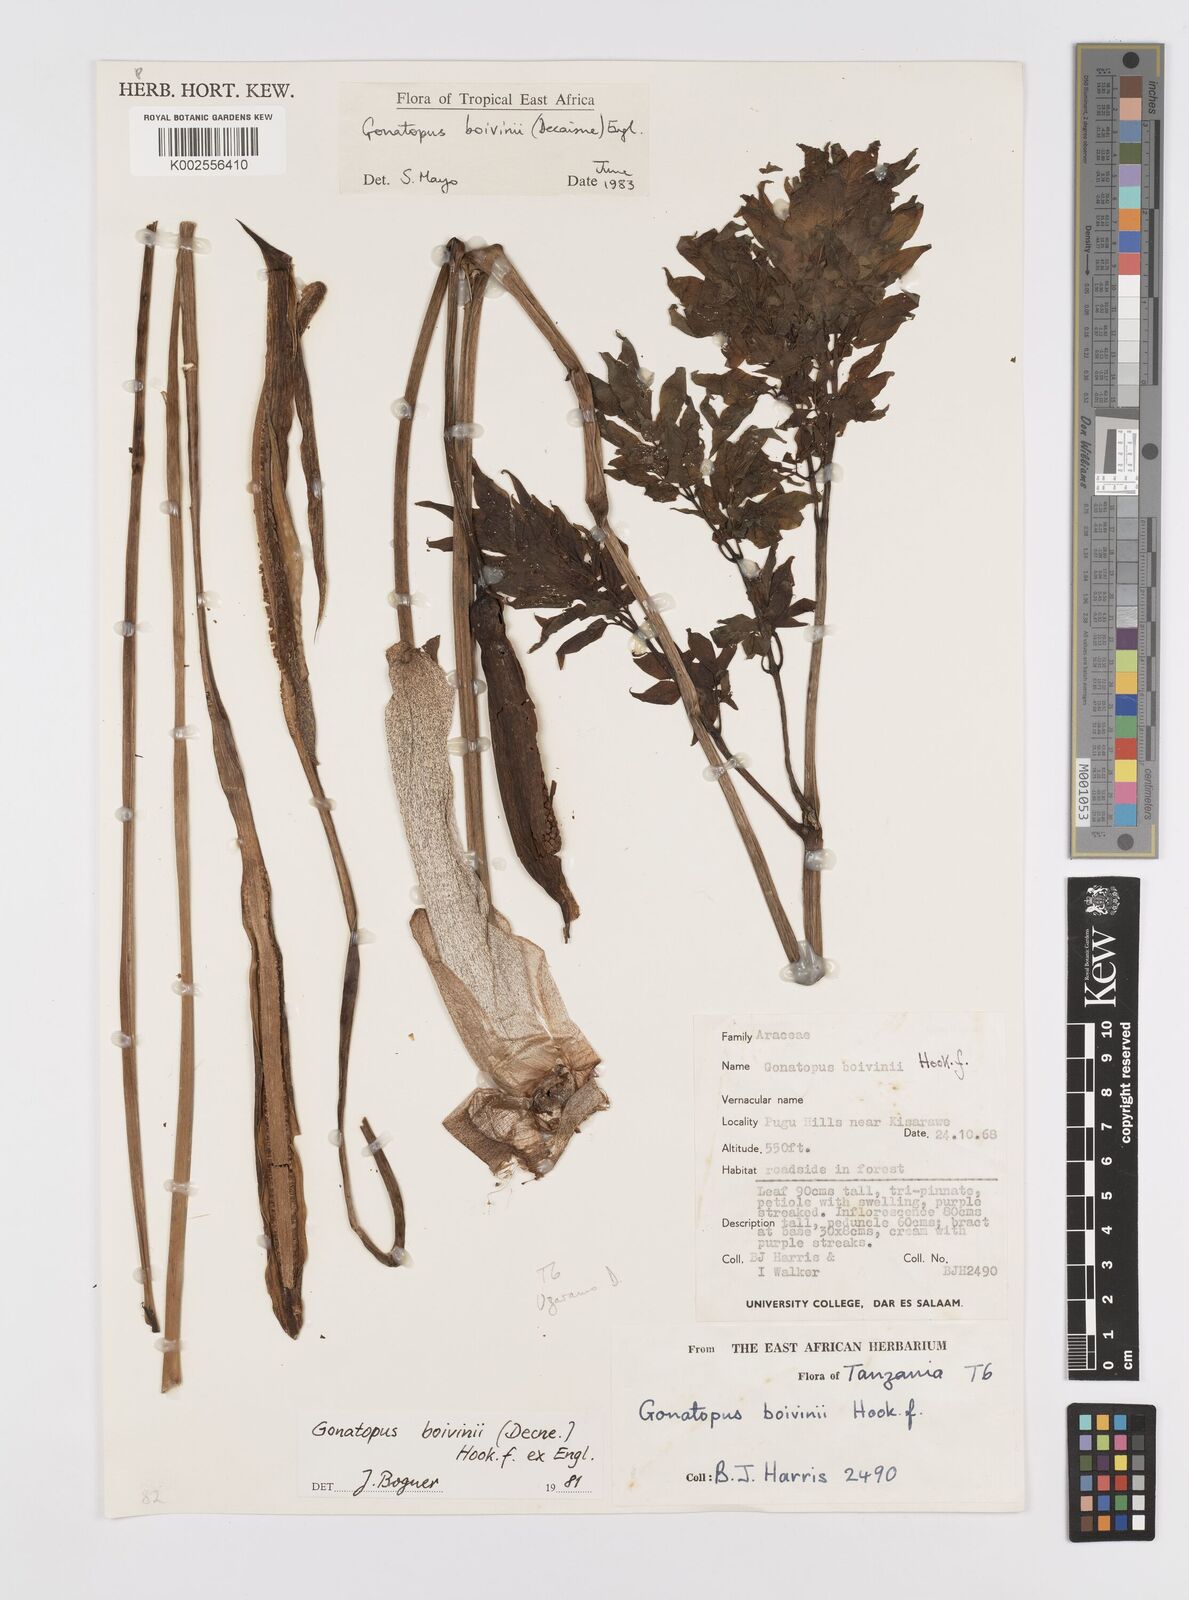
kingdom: Plantae
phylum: Tracheophyta
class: Liliopsida
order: Alismatales
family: Araceae
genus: Gonatopus
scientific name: Gonatopus boivinii
